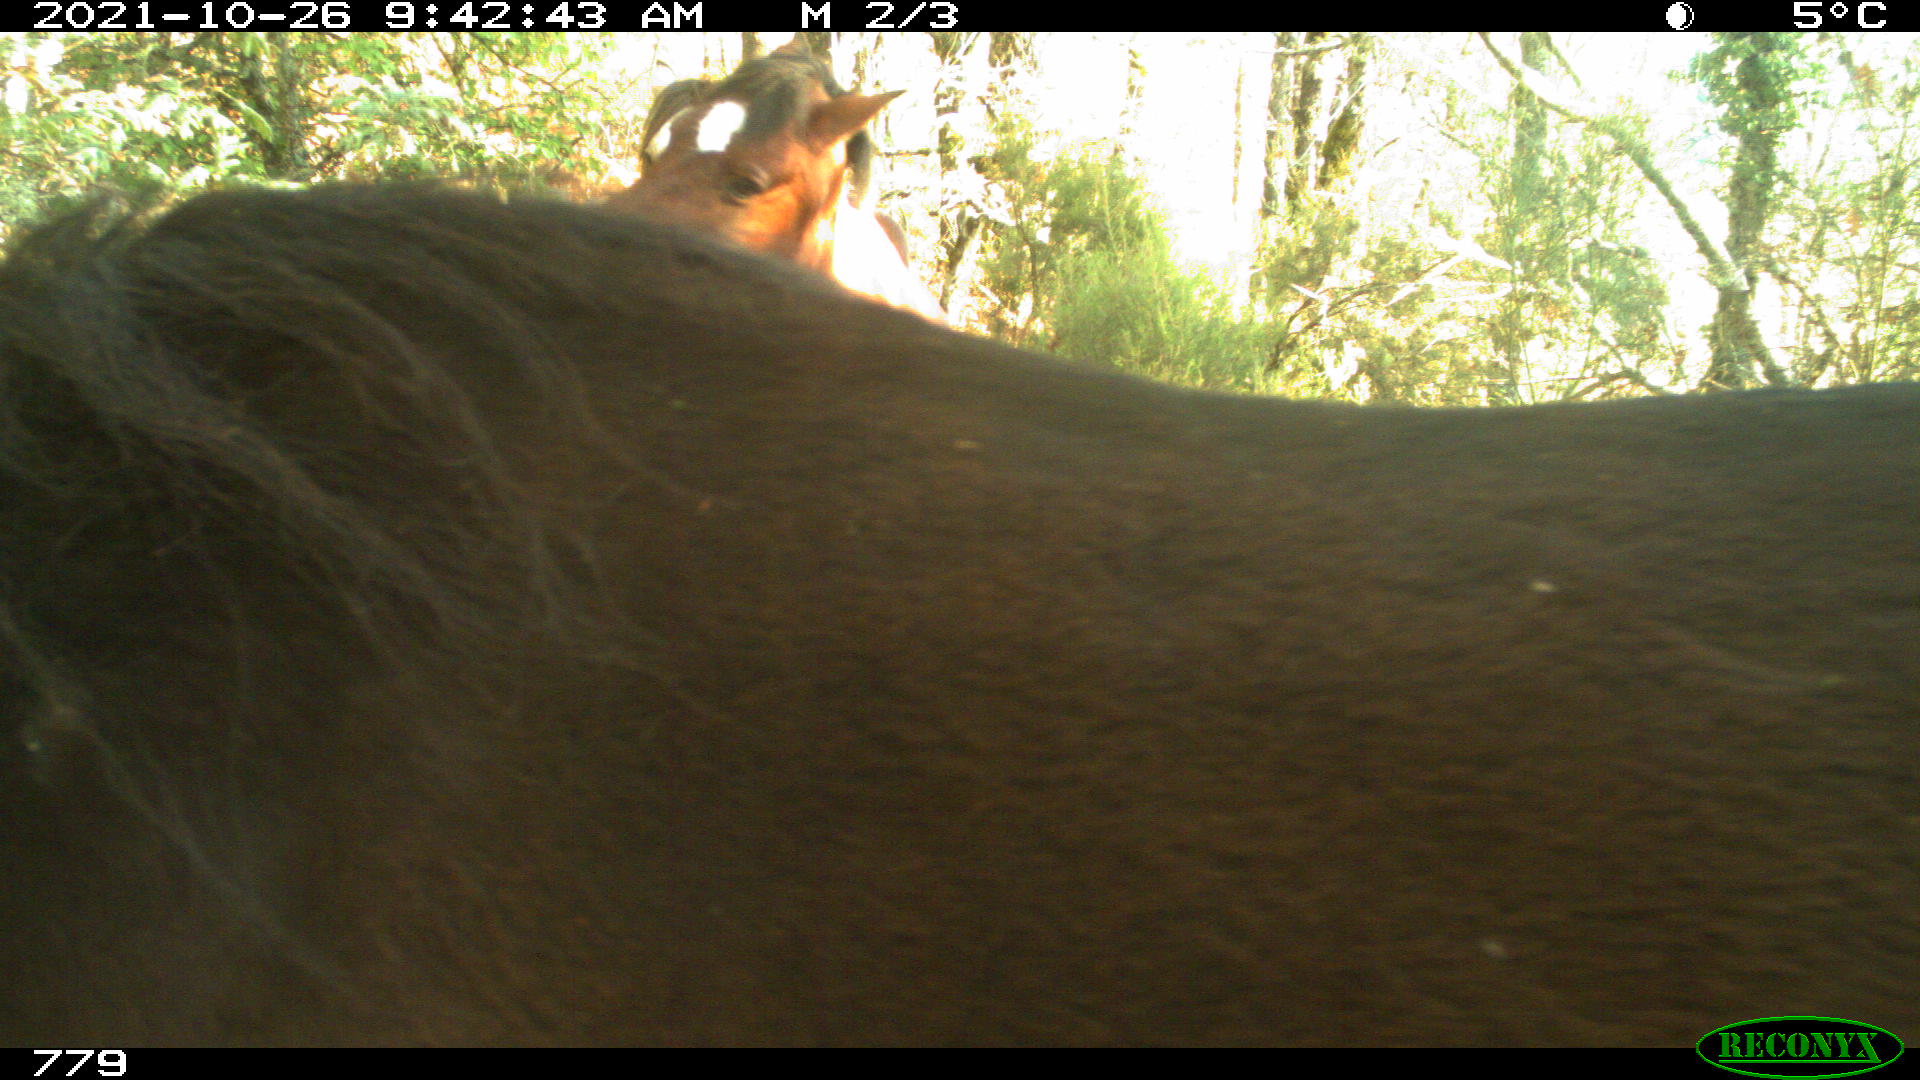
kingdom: Animalia
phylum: Chordata
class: Mammalia
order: Perissodactyla
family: Equidae
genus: Equus
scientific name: Equus caballus
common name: Horse
